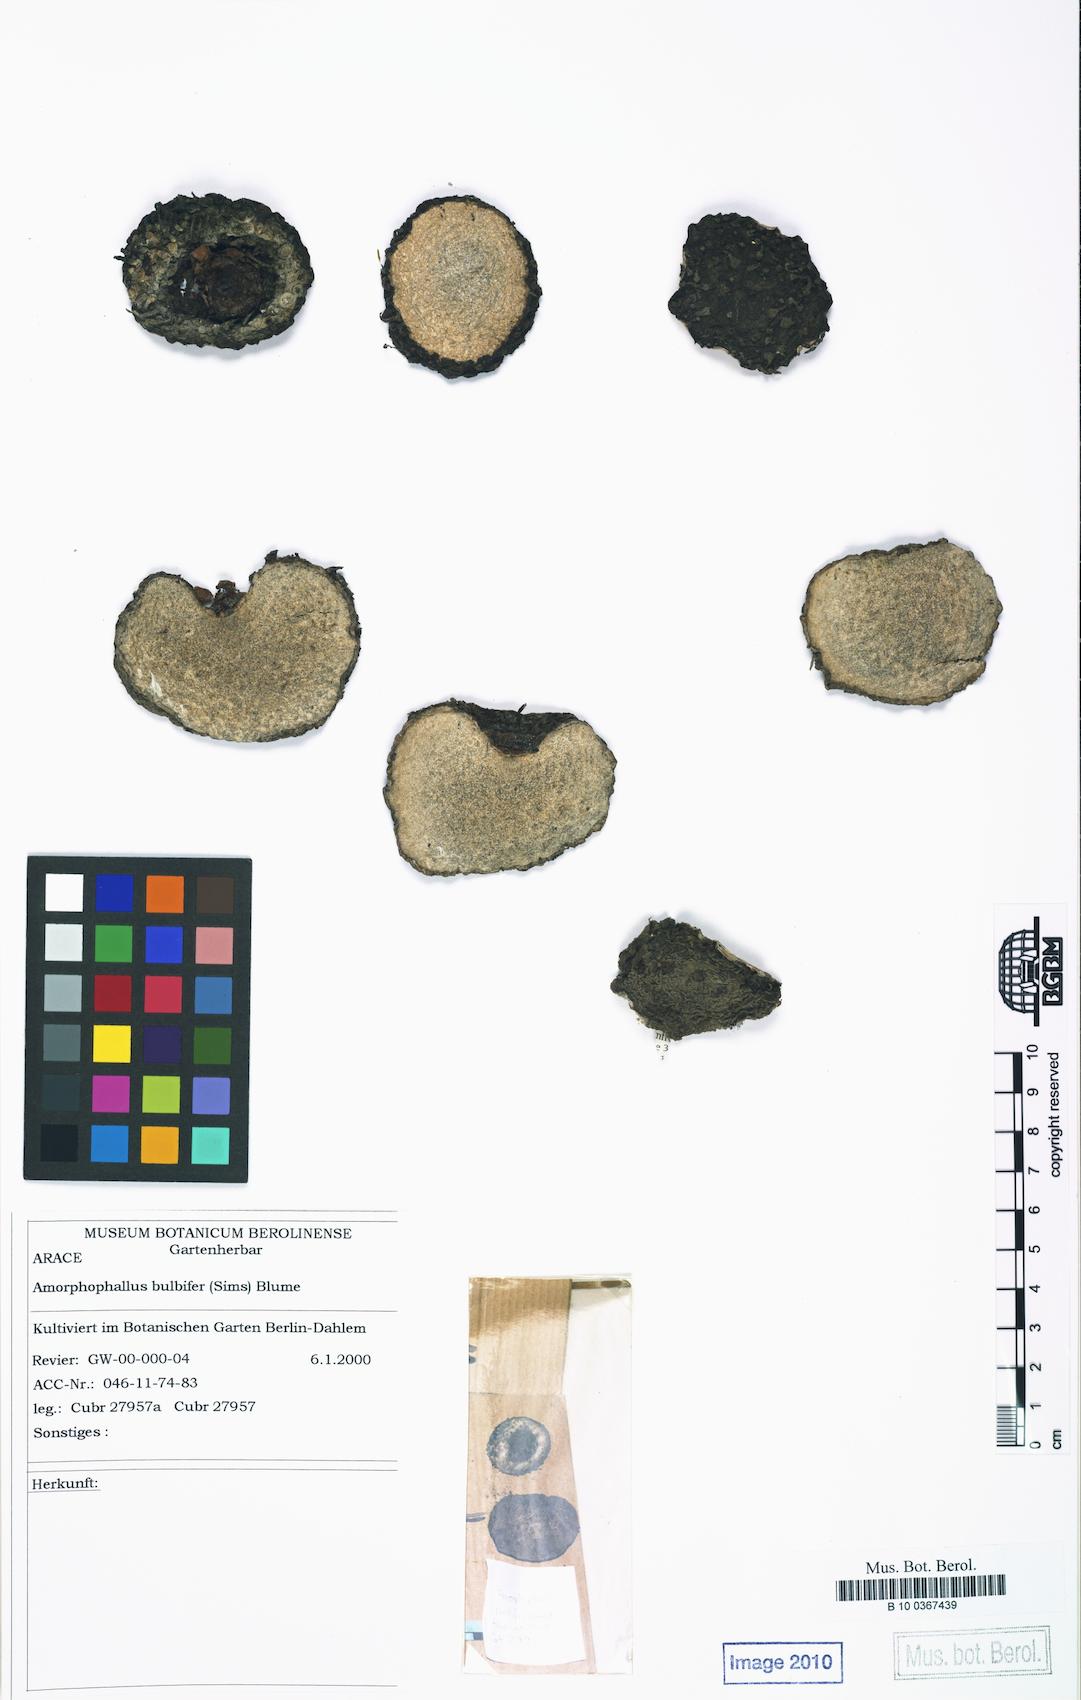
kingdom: Plantae
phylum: Tracheophyta
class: Liliopsida
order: Alismatales
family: Araceae
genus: Amorphophallus
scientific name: Amorphophallus bulbifer
